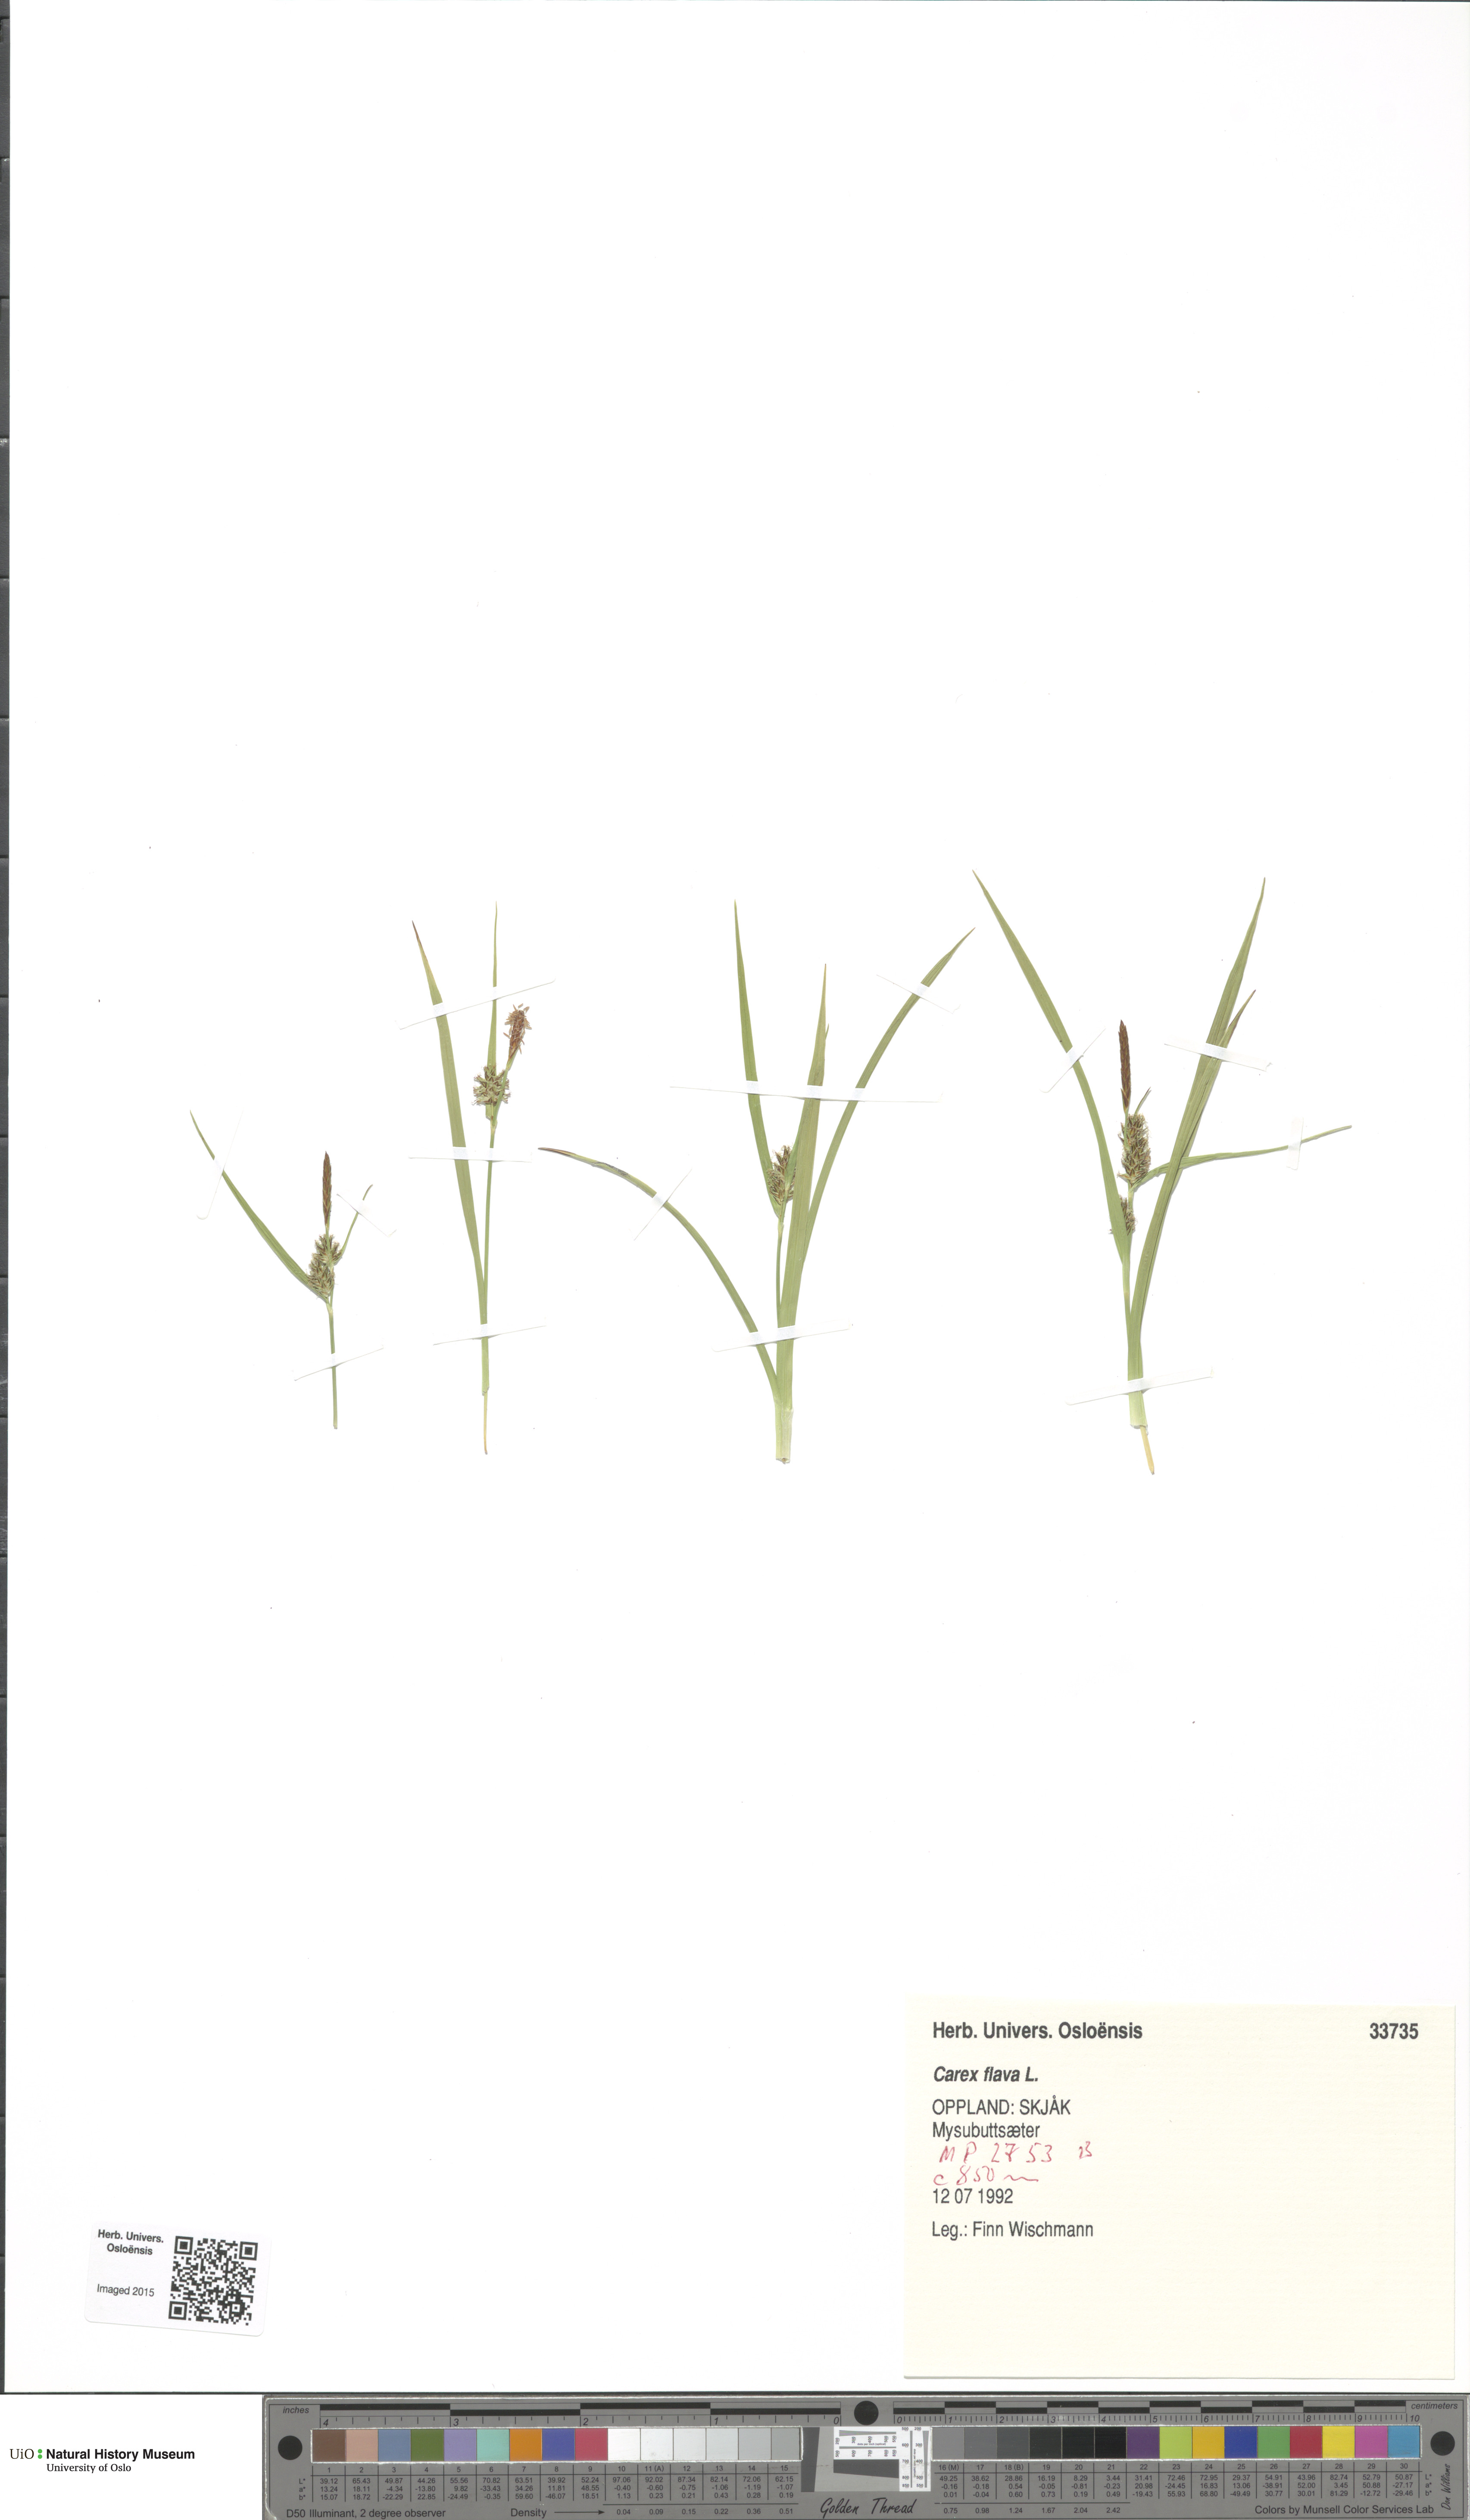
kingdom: Plantae
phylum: Tracheophyta
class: Liliopsida
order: Poales
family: Cyperaceae
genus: Carex
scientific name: Carex flava
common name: Large yellow-sedge
